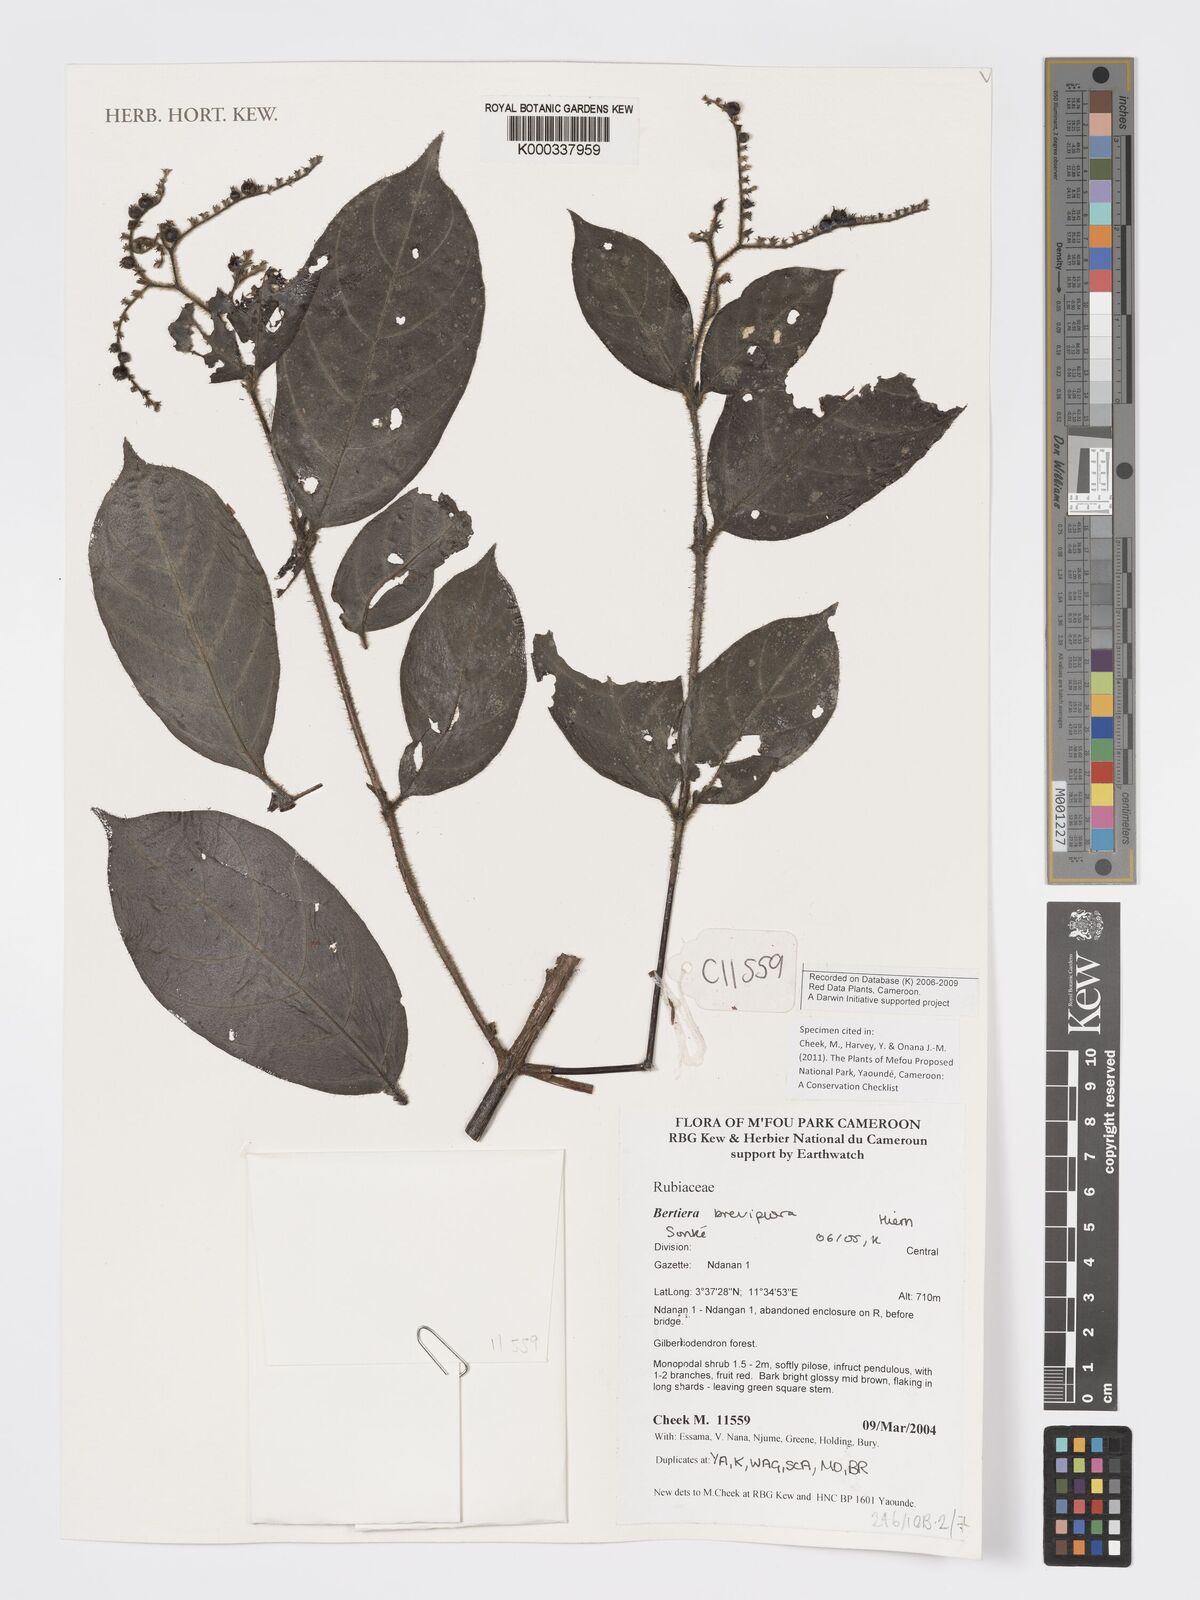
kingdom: Plantae
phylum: Tracheophyta
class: Magnoliopsida
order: Gentianales
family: Rubiaceae
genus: Bertiera
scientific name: Bertiera breviflora
